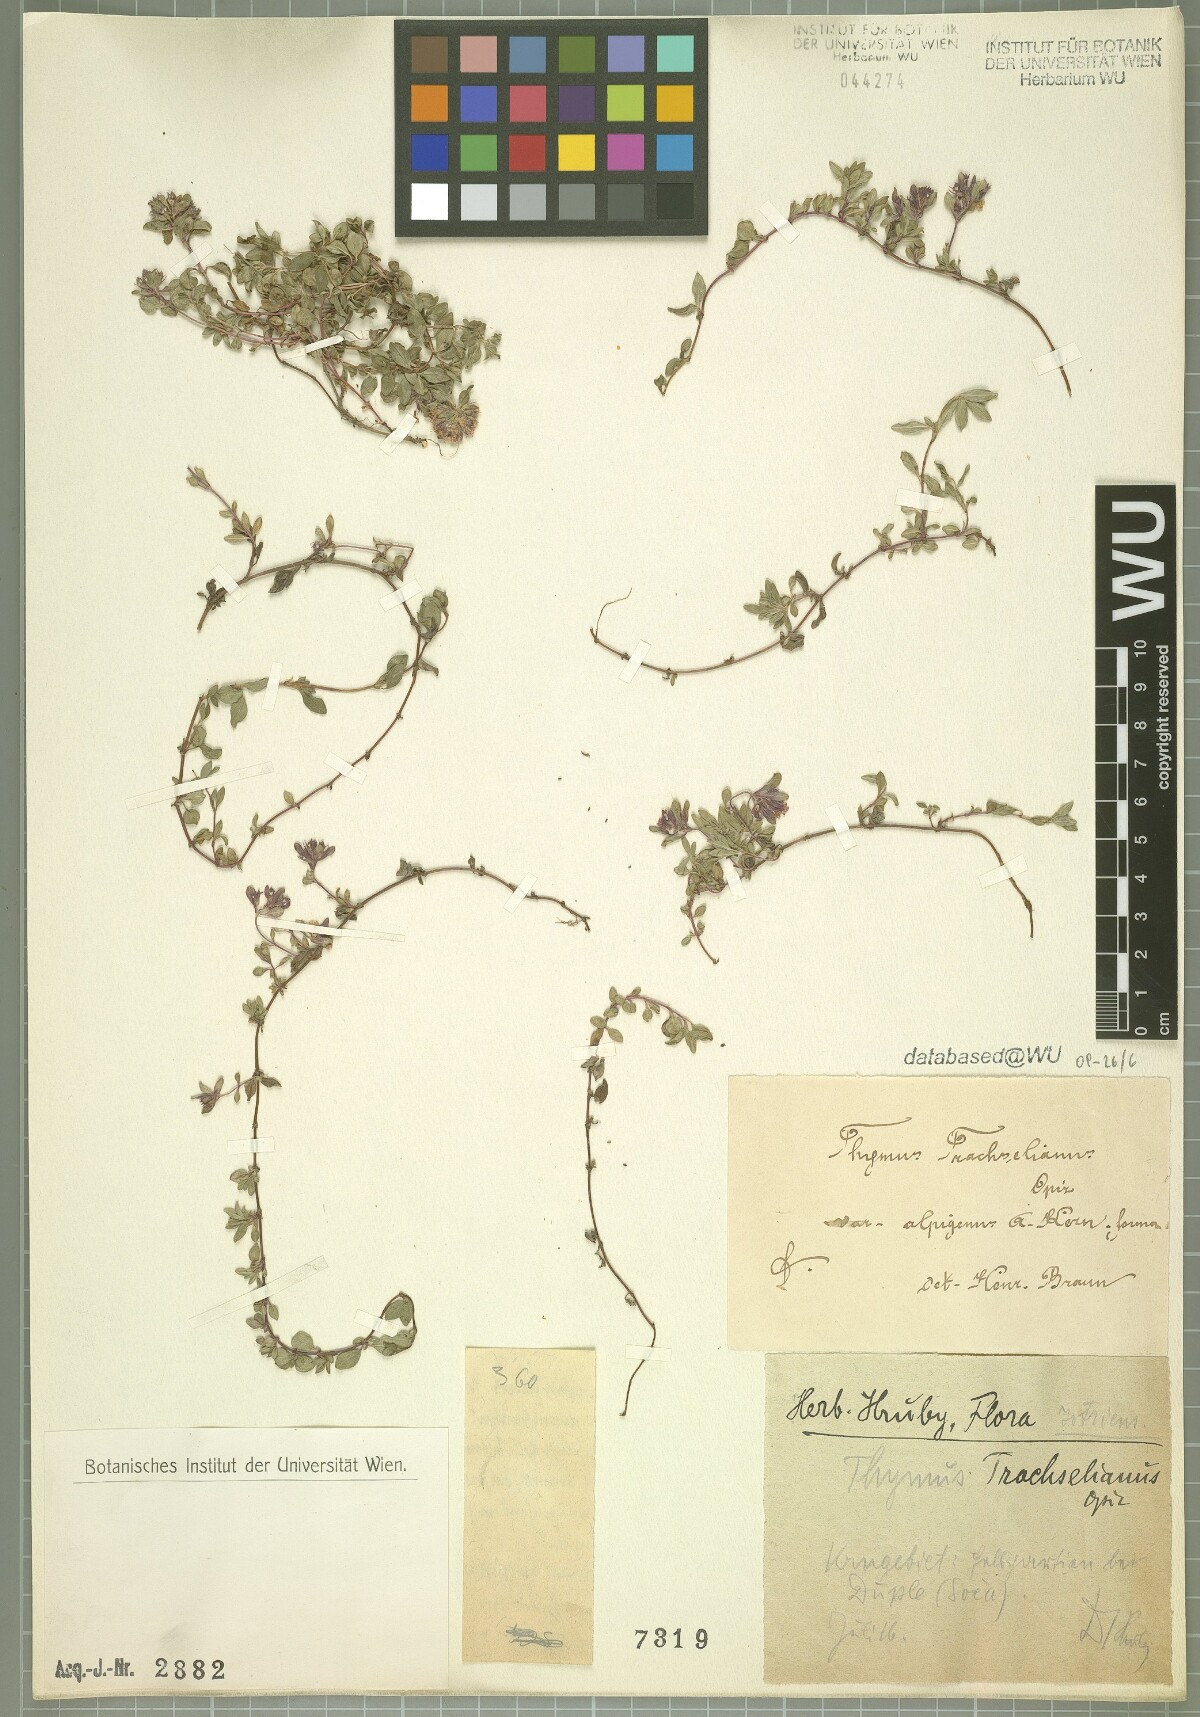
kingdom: Plantae
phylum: Tracheophyta
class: Magnoliopsida
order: Lamiales
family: Lamiaceae
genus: Thymus
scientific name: Thymus praecox
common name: Wild thyme
